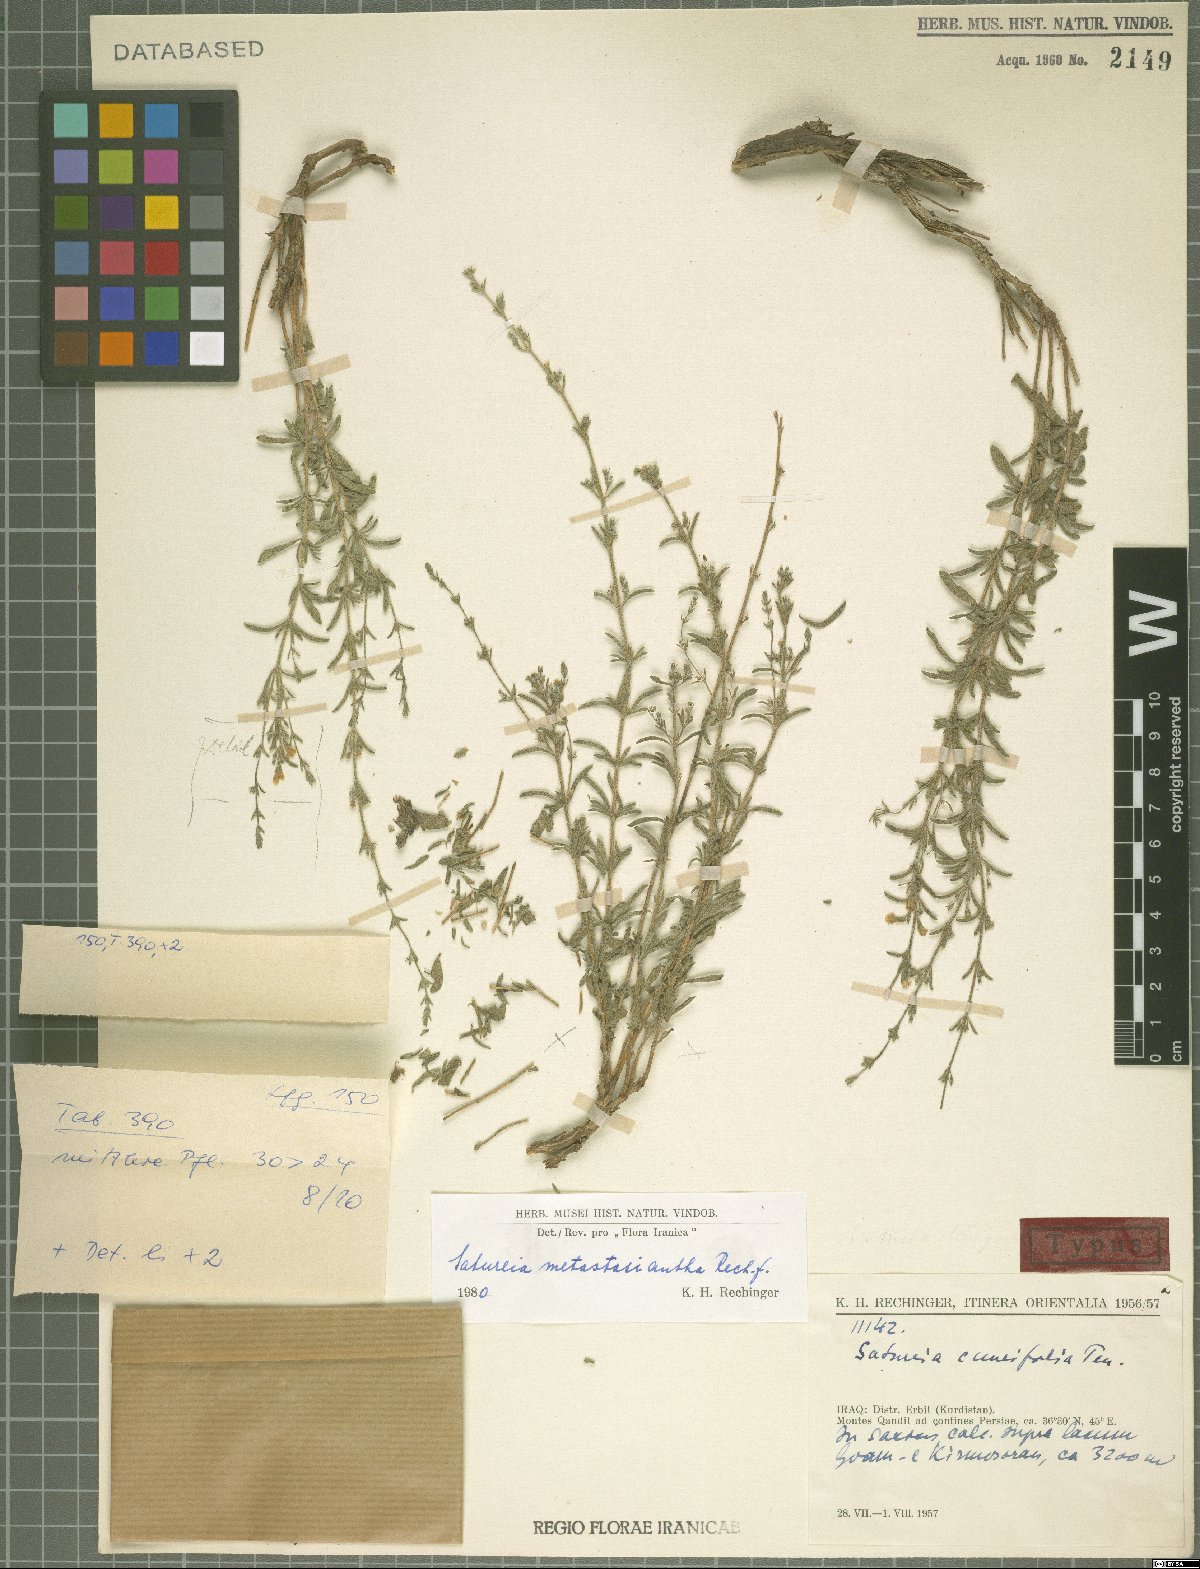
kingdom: Plantae
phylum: Tracheophyta
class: Magnoliopsida
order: Lamiales
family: Lamiaceae
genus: Satureja
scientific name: Satureja metastasiantha
